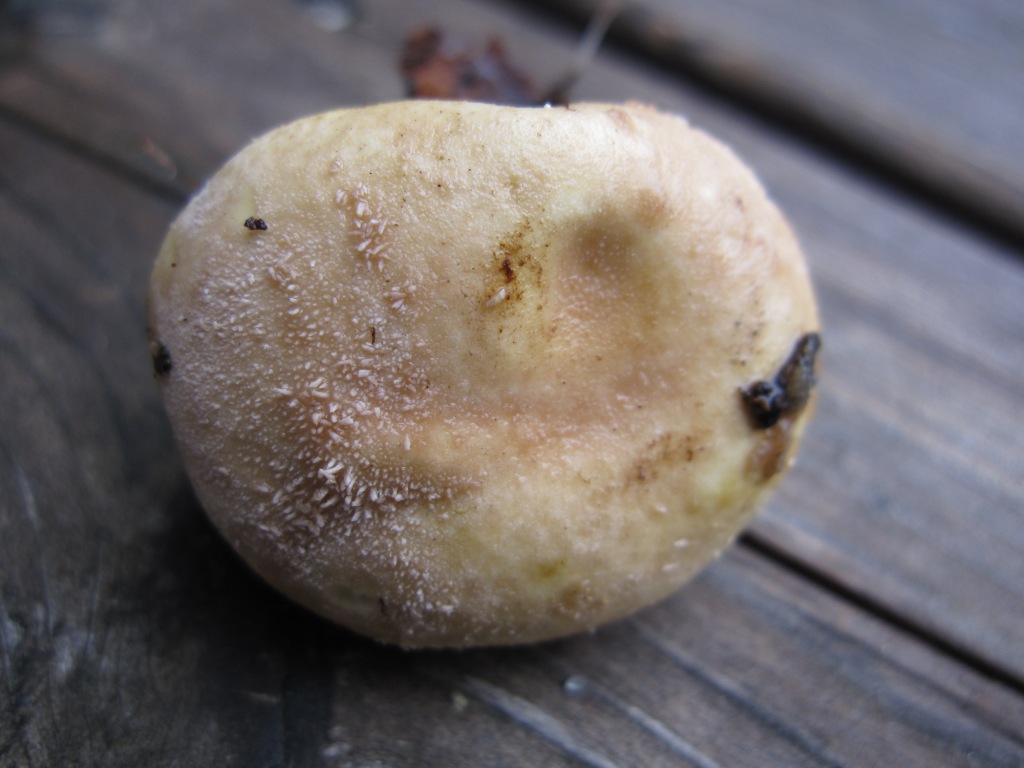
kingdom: Fungi
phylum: Basidiomycota
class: Agaricomycetes
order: Agaricales
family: Lycoperdaceae
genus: Lycoperdon
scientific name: Lycoperdon molle
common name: skov-støvbold
